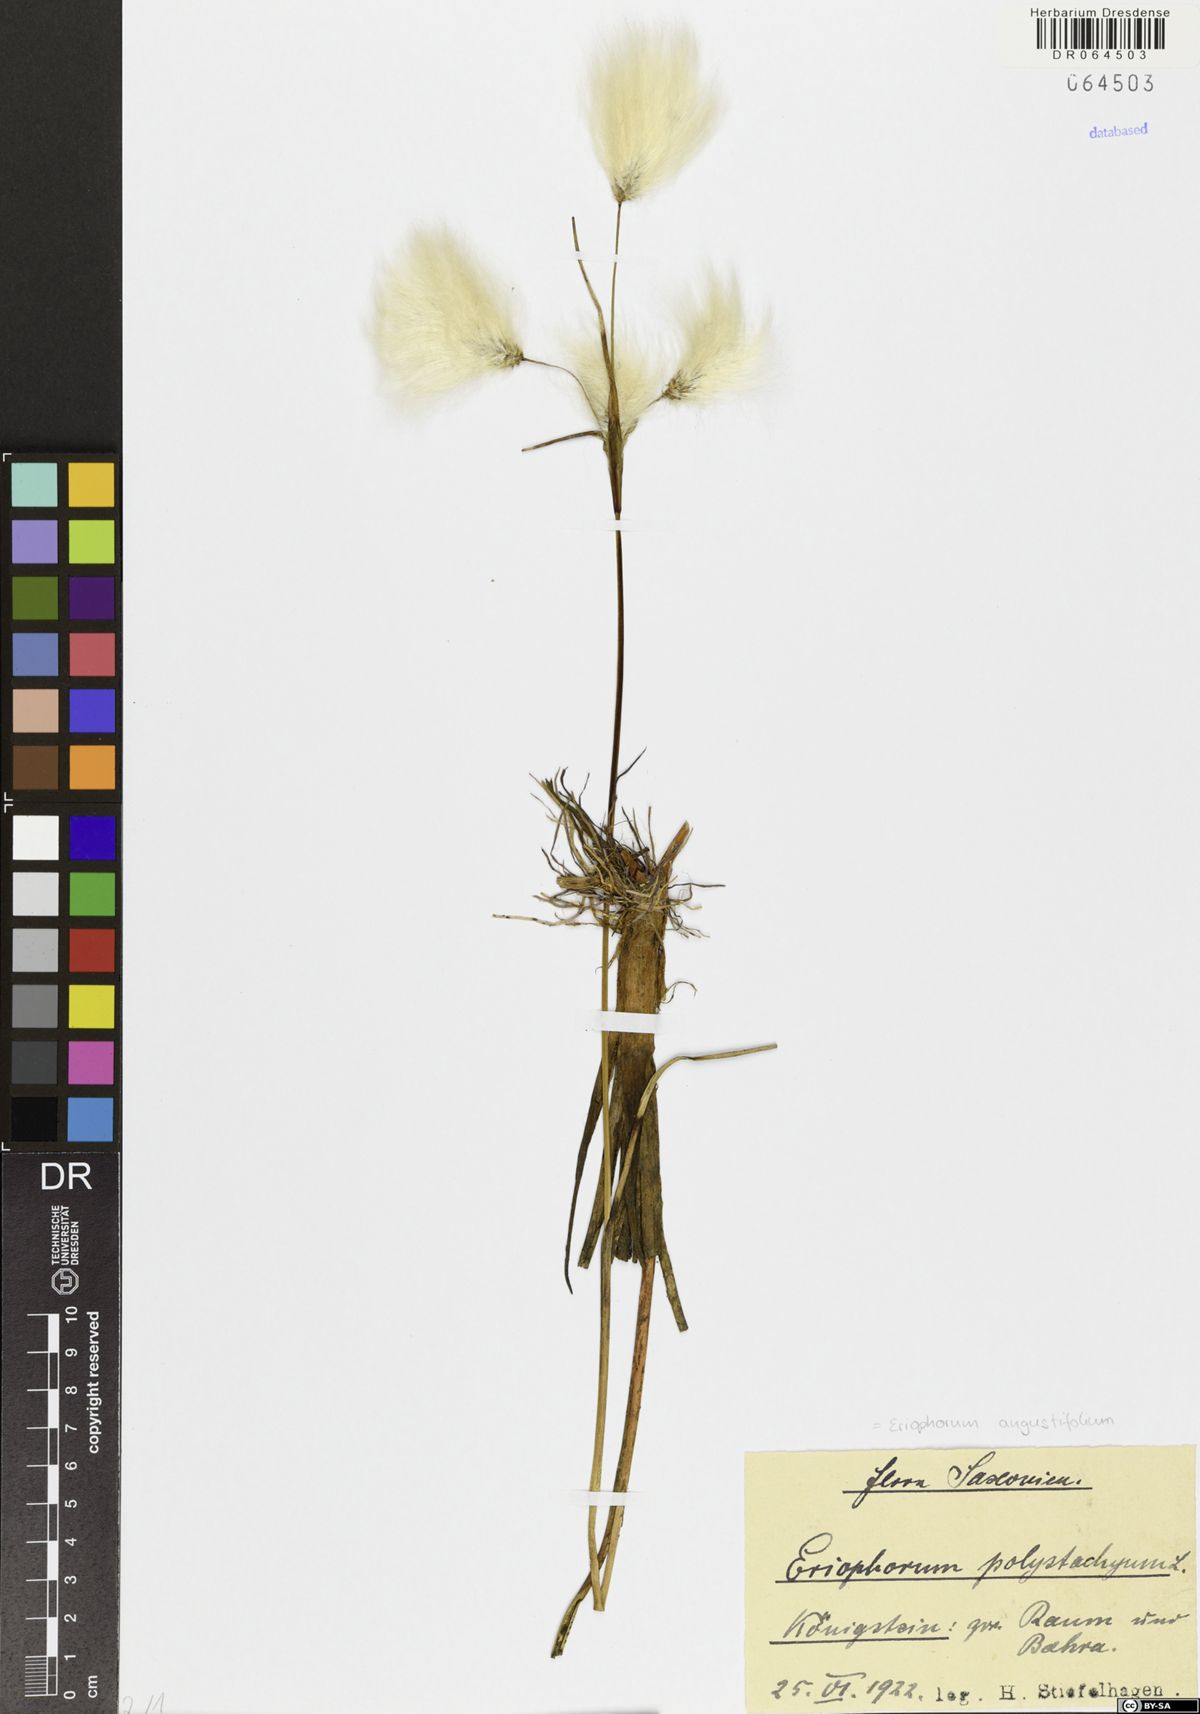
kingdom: Plantae
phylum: Tracheophyta
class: Liliopsida
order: Poales
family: Cyperaceae
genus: Eriophorum
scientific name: Eriophorum angustifolium
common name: Common cottongrass
